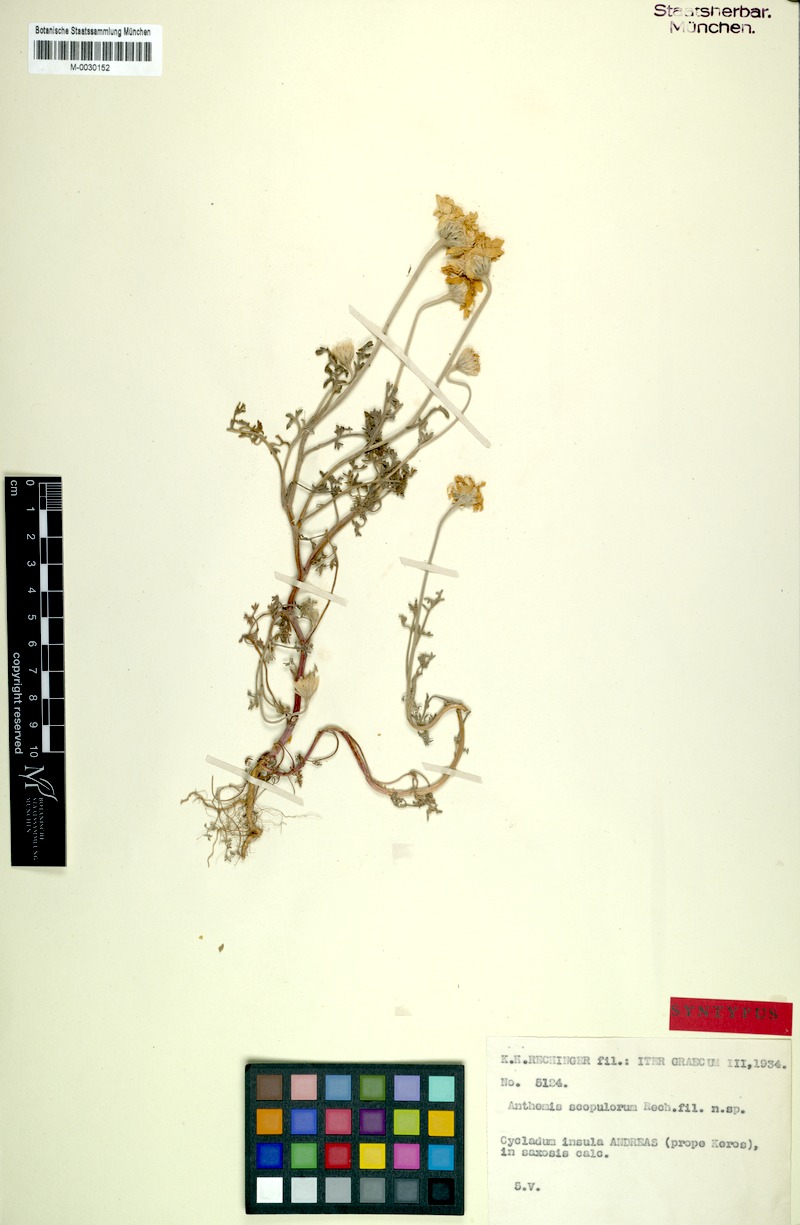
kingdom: Plantae
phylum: Tracheophyta
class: Magnoliopsida
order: Asterales
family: Asteraceae
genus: Anthemis
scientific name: Anthemis scopulorum
